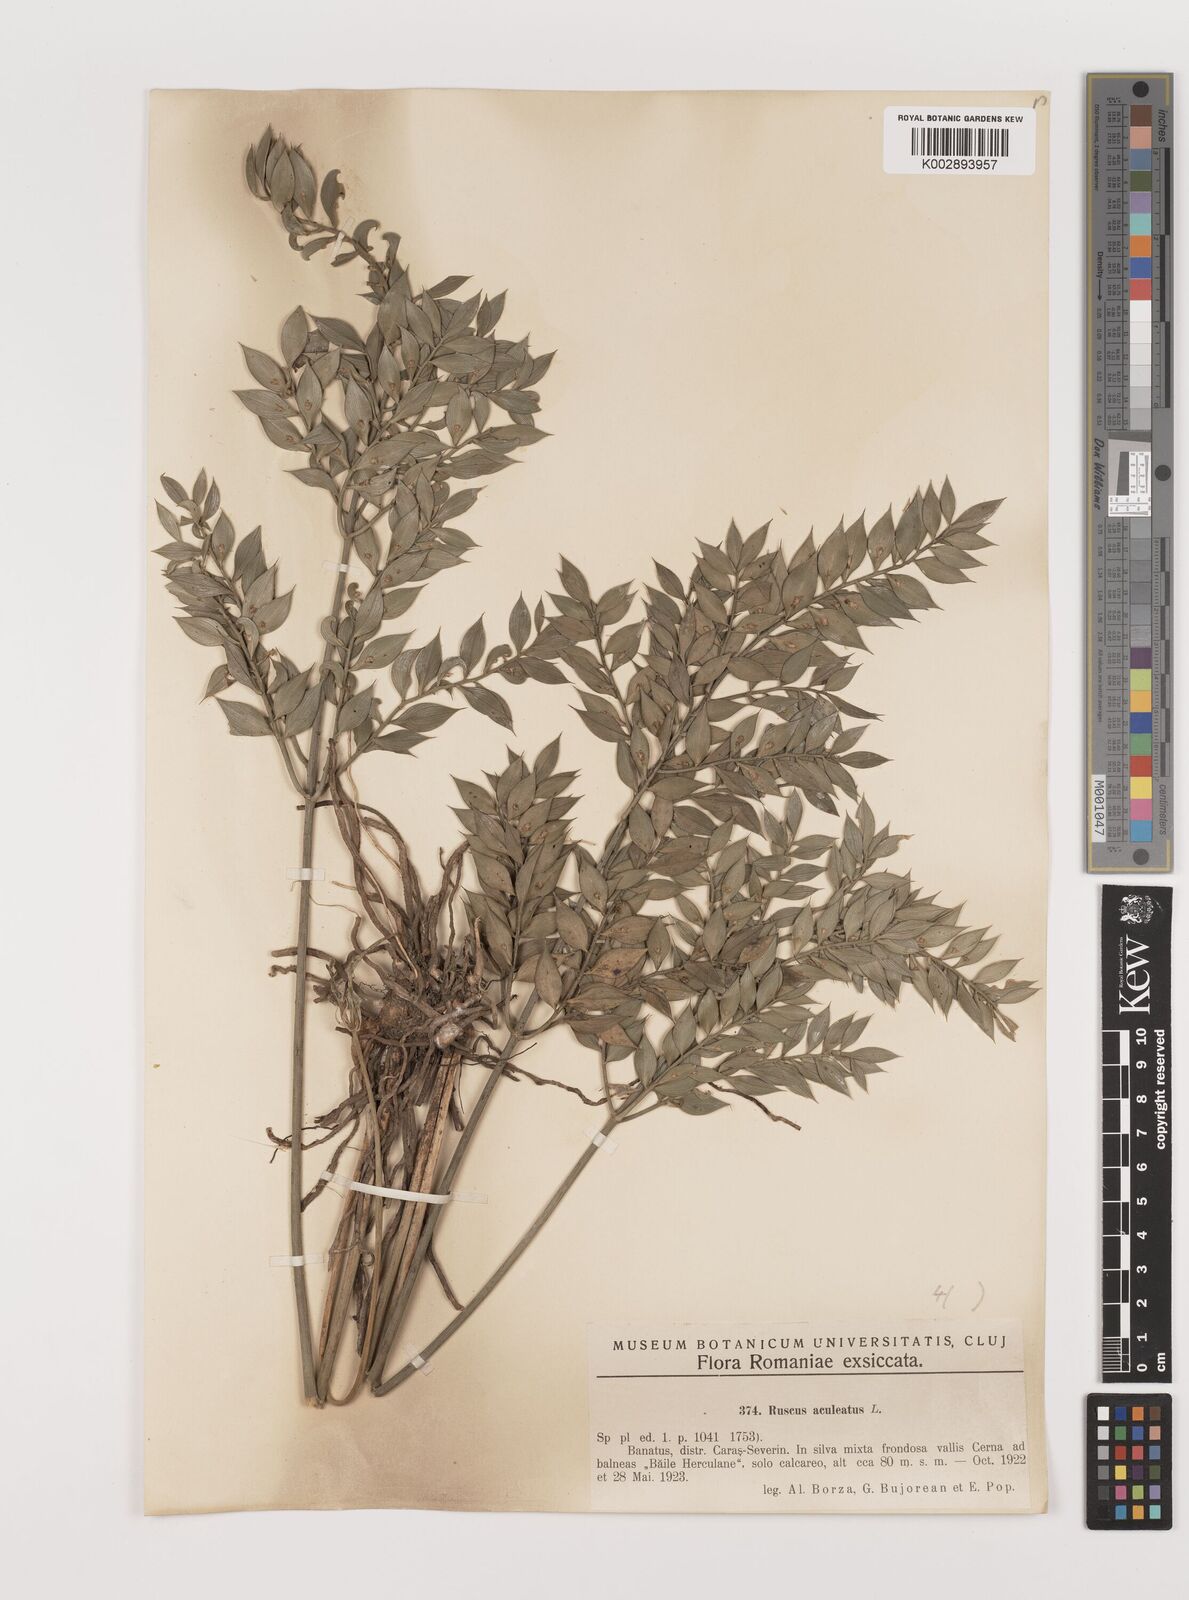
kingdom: Plantae
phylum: Tracheophyta
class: Liliopsida
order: Asparagales
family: Asparagaceae
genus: Ruscus
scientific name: Ruscus aculeatus
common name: Butcher's-broom
